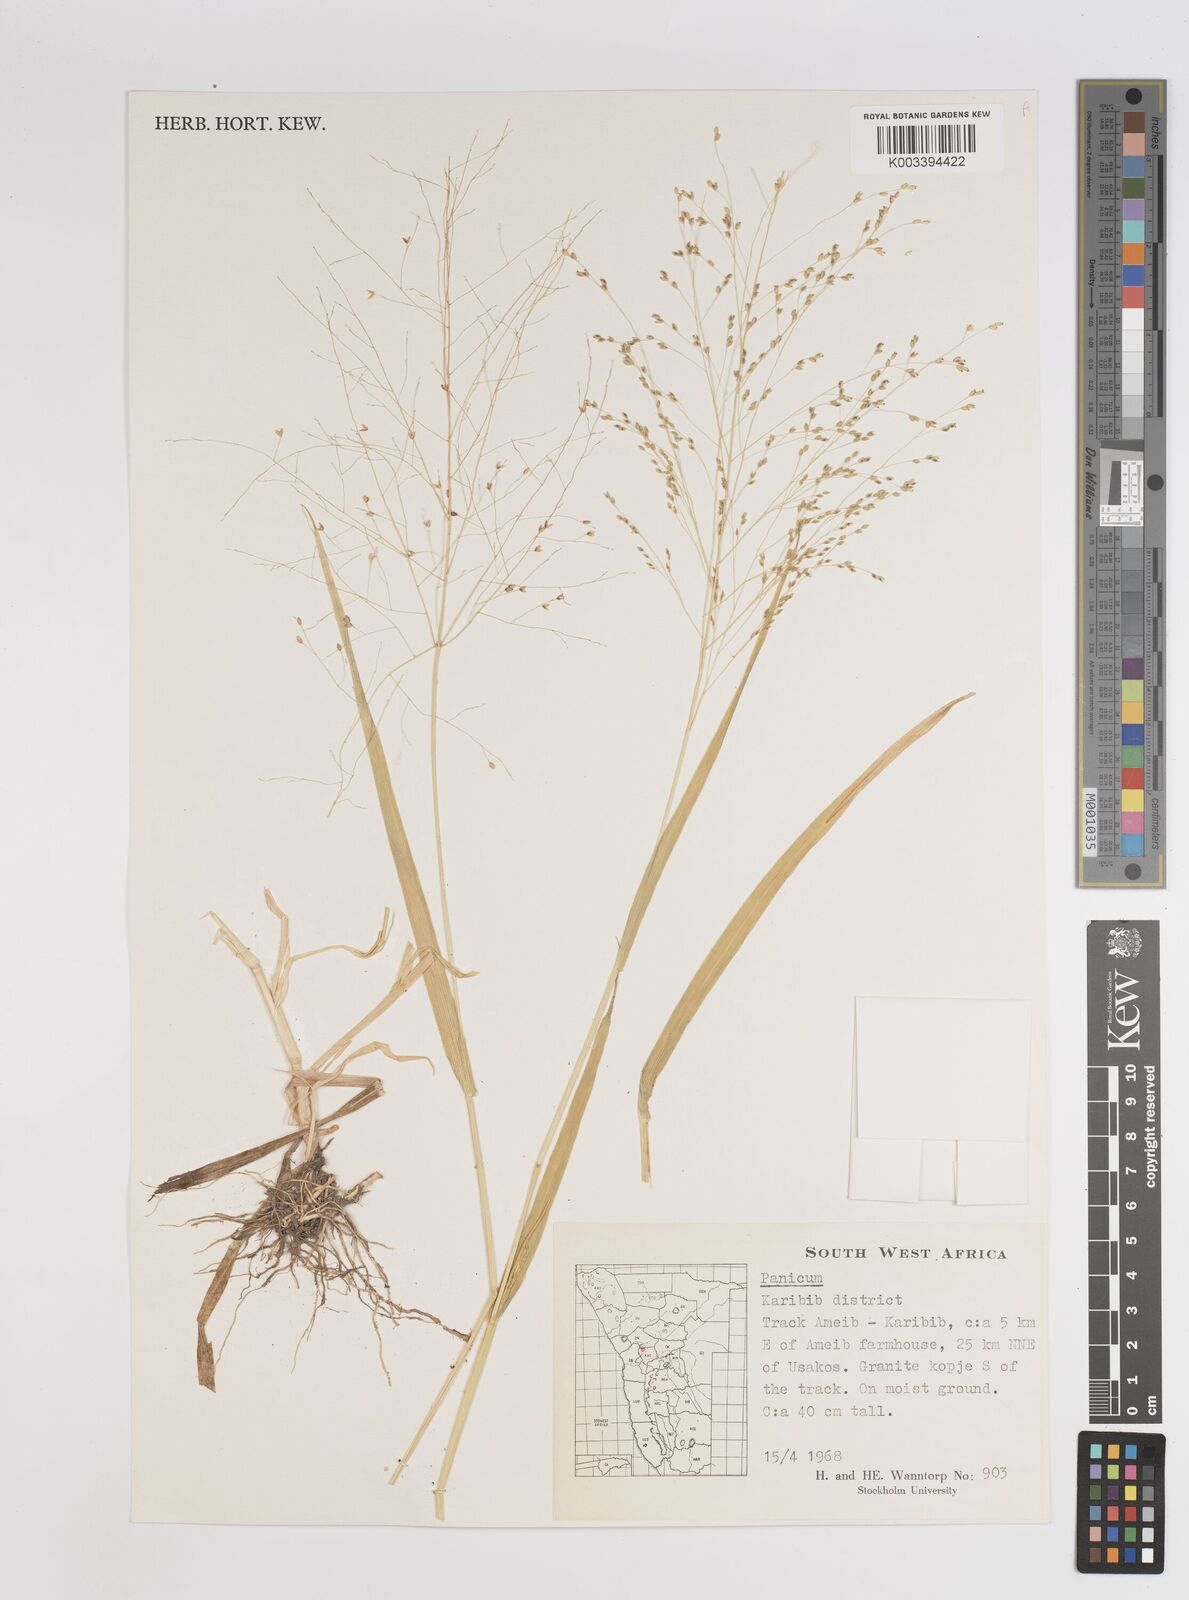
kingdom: Plantae
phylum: Tracheophyta
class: Liliopsida
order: Poales
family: Poaceae
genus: Panicum
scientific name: Panicum
